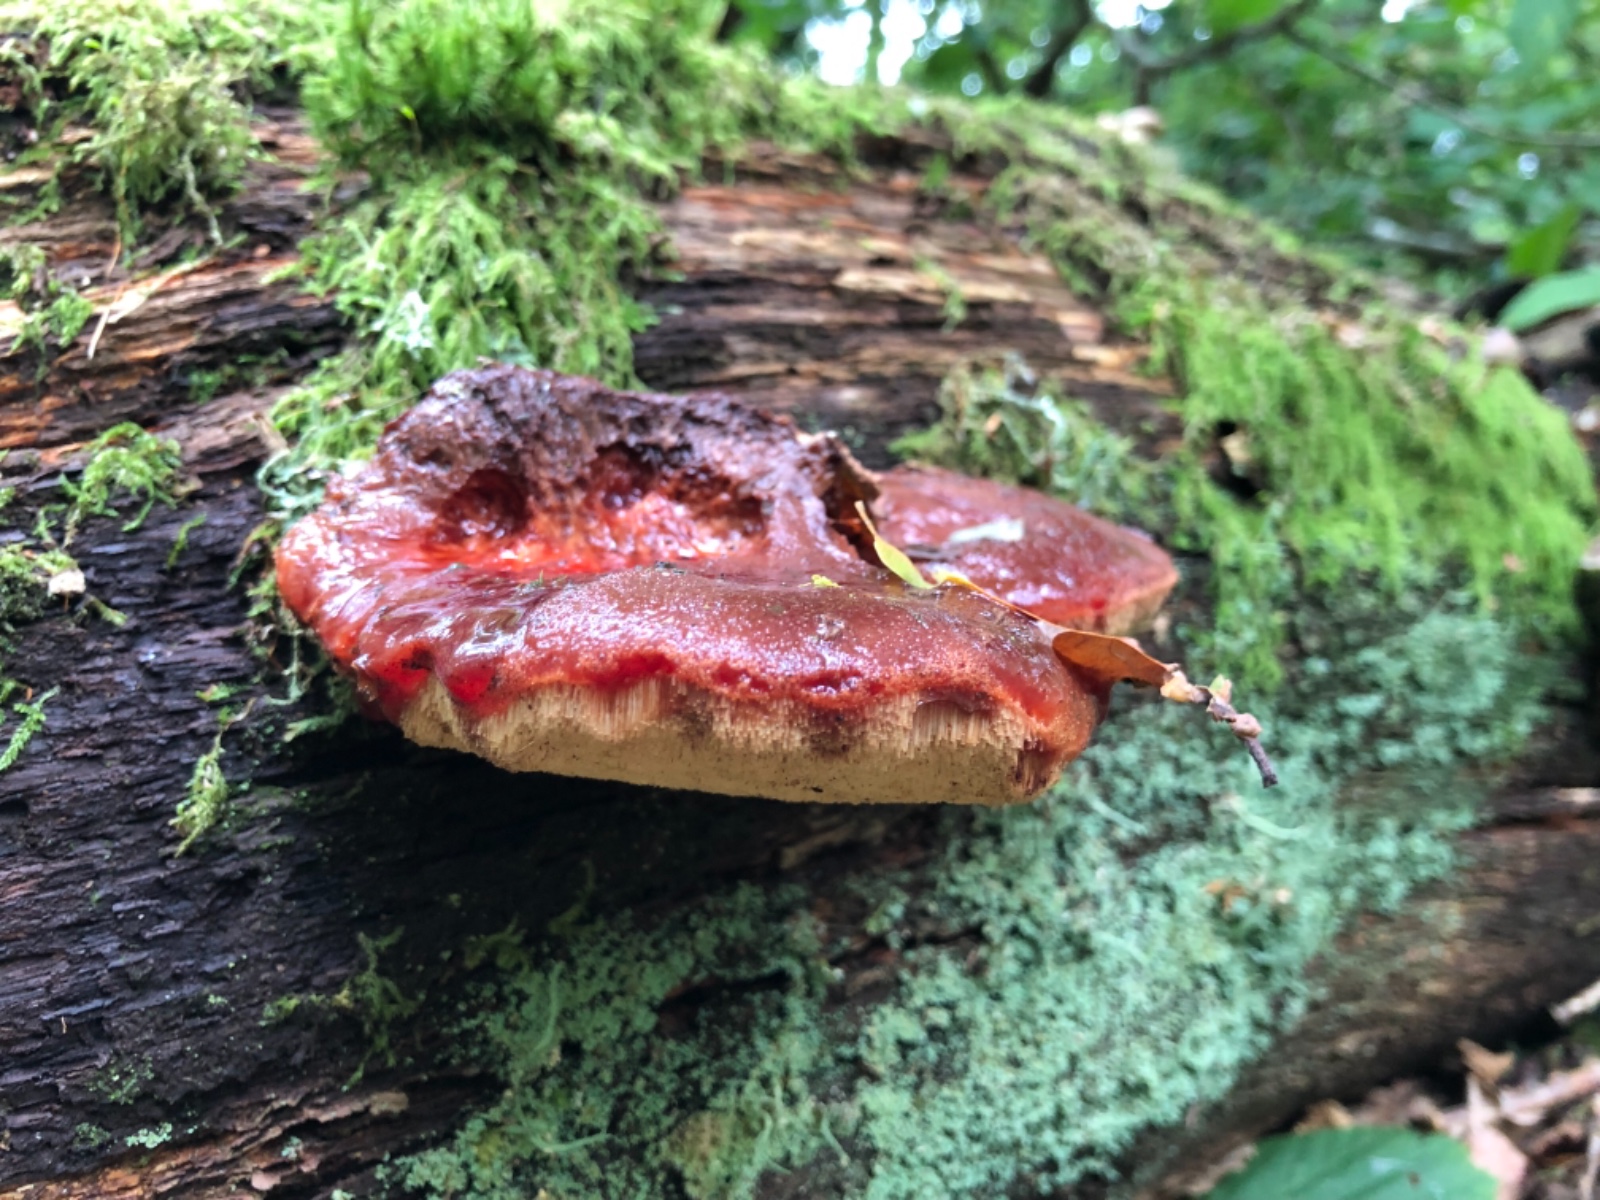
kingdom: Fungi
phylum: Basidiomycota
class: Agaricomycetes
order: Agaricales
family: Fistulinaceae
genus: Fistulina
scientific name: Fistulina hepatica
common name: oksetunge
